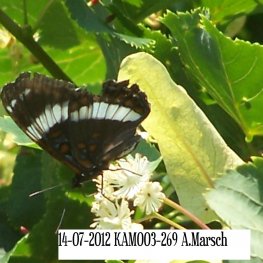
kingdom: Animalia
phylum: Arthropoda
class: Insecta
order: Lepidoptera
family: Nymphalidae
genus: Limenitis
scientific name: Limenitis arthemis
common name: Red-spotted Admiral
